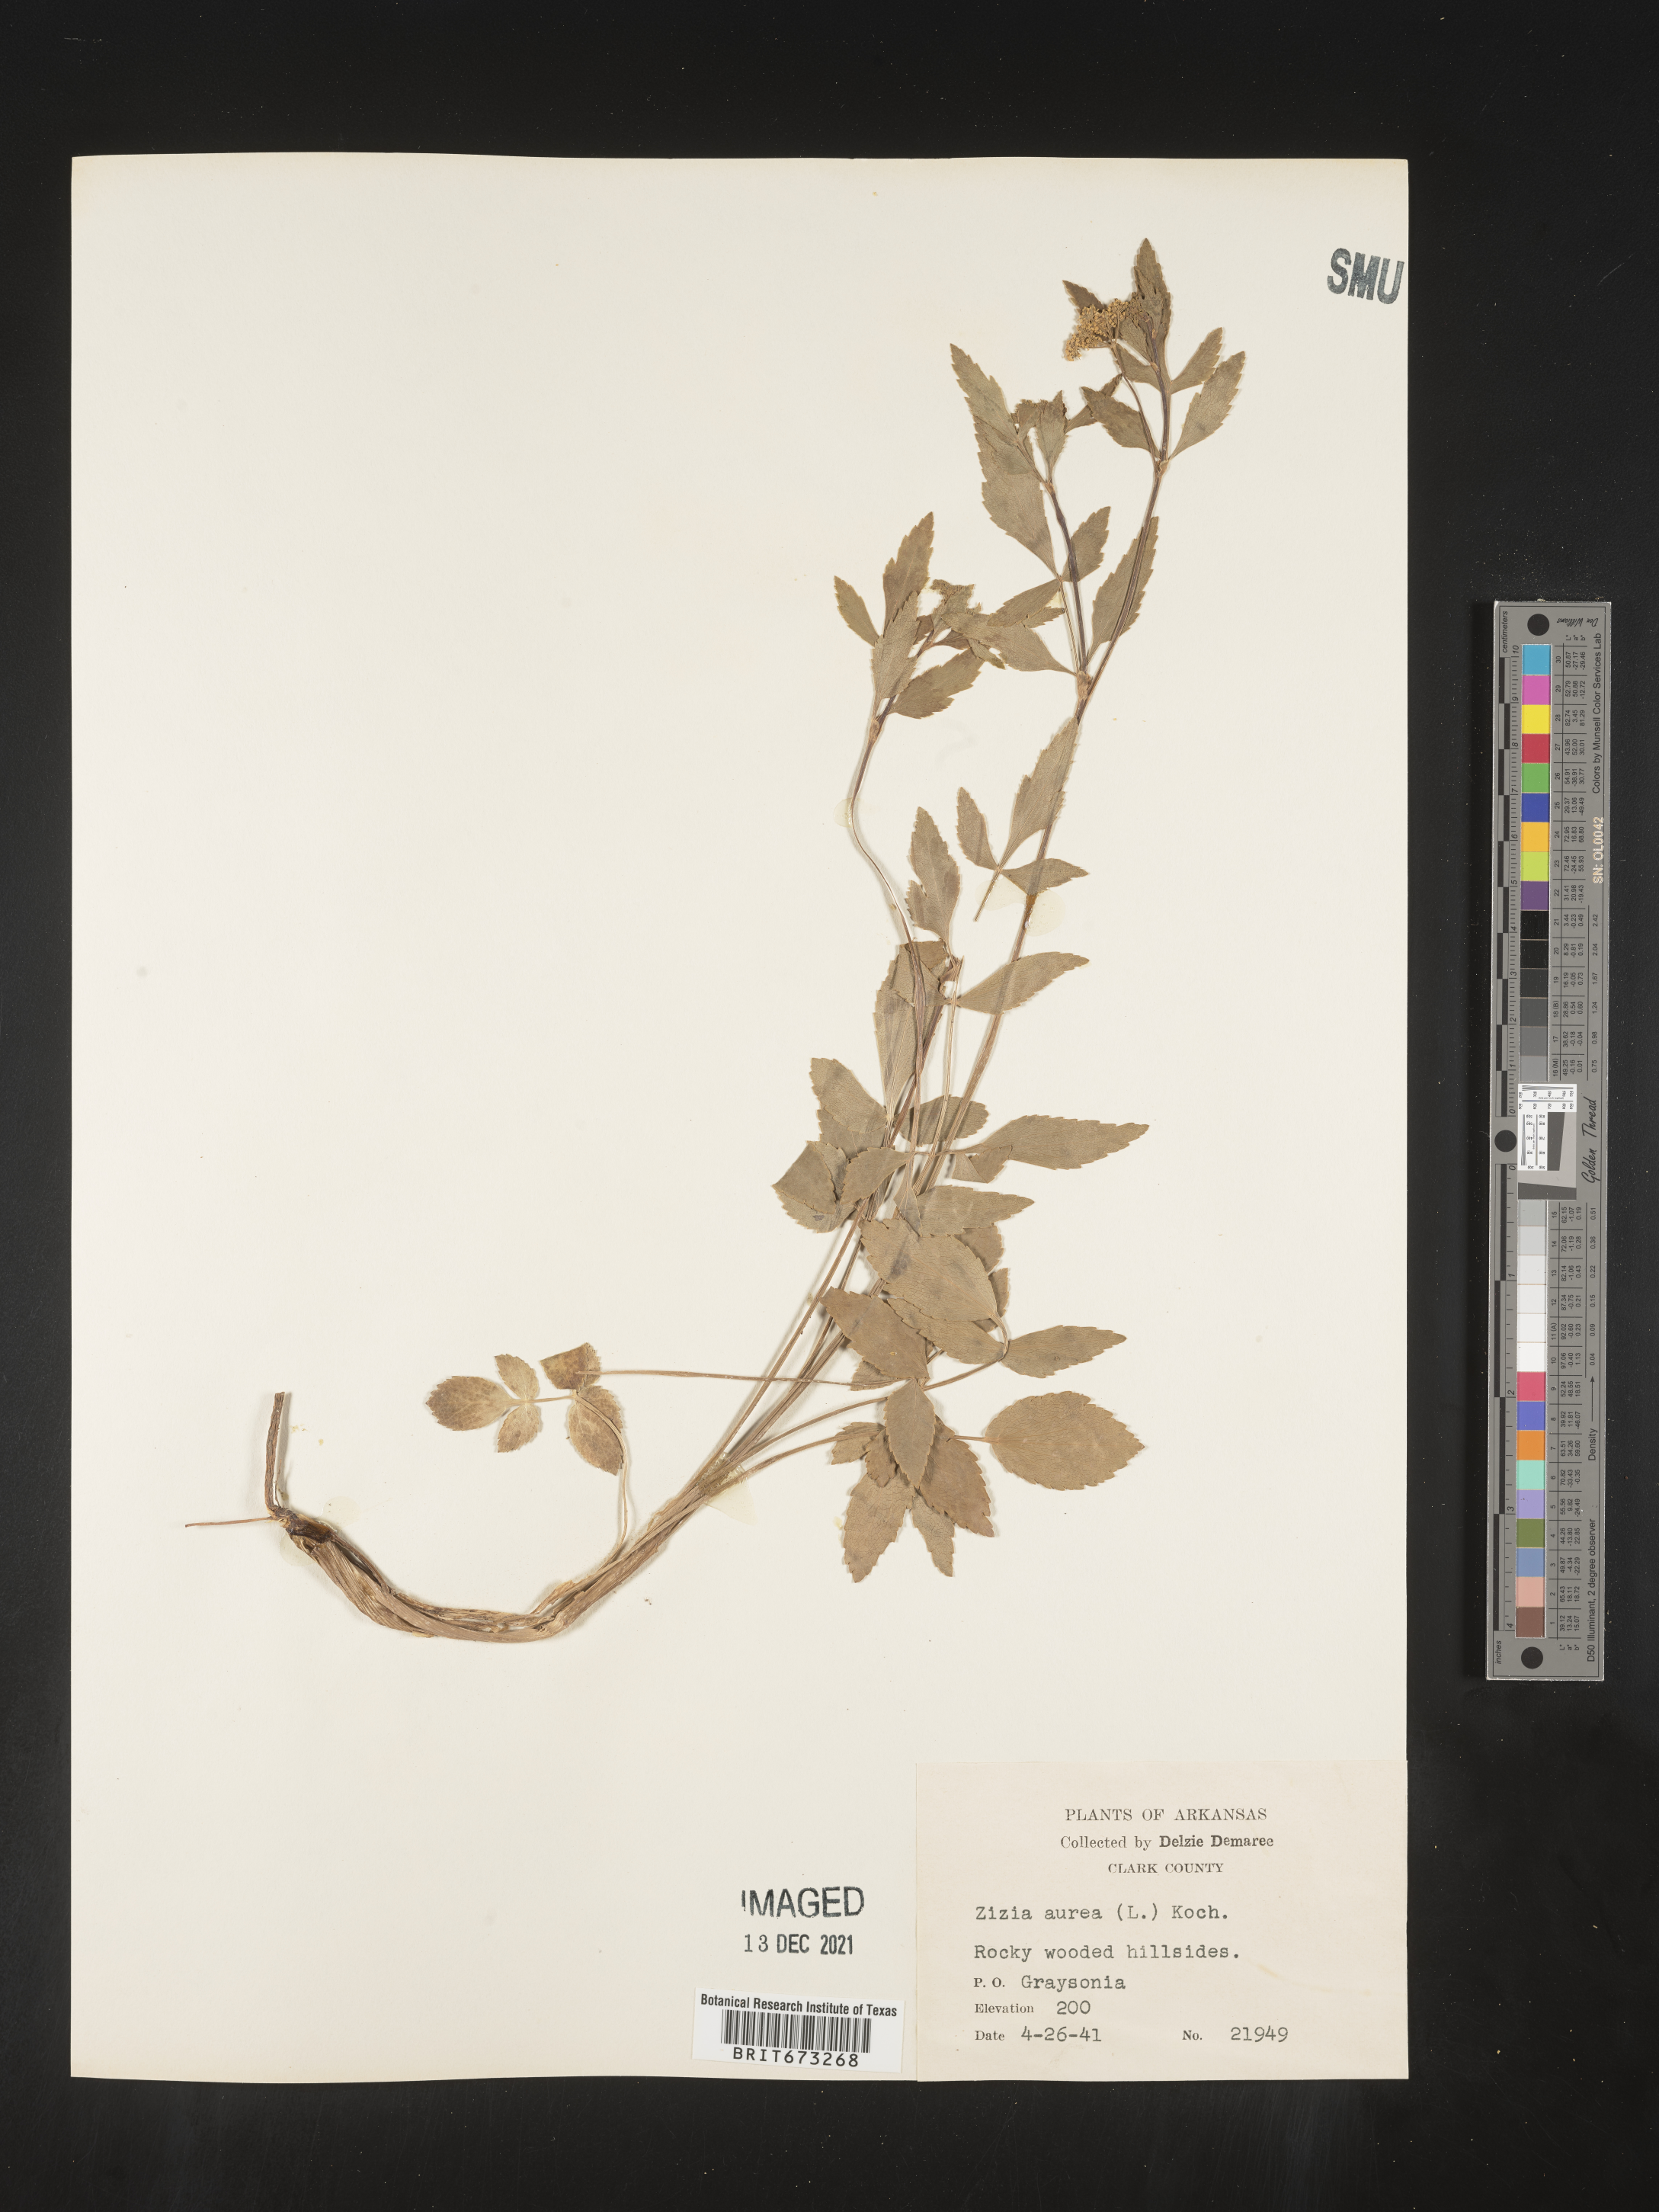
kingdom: Plantae
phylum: Tracheophyta
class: Magnoliopsida
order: Apiales
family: Apiaceae
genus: Zizia
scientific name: Zizia aurea
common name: Golden alexanders
